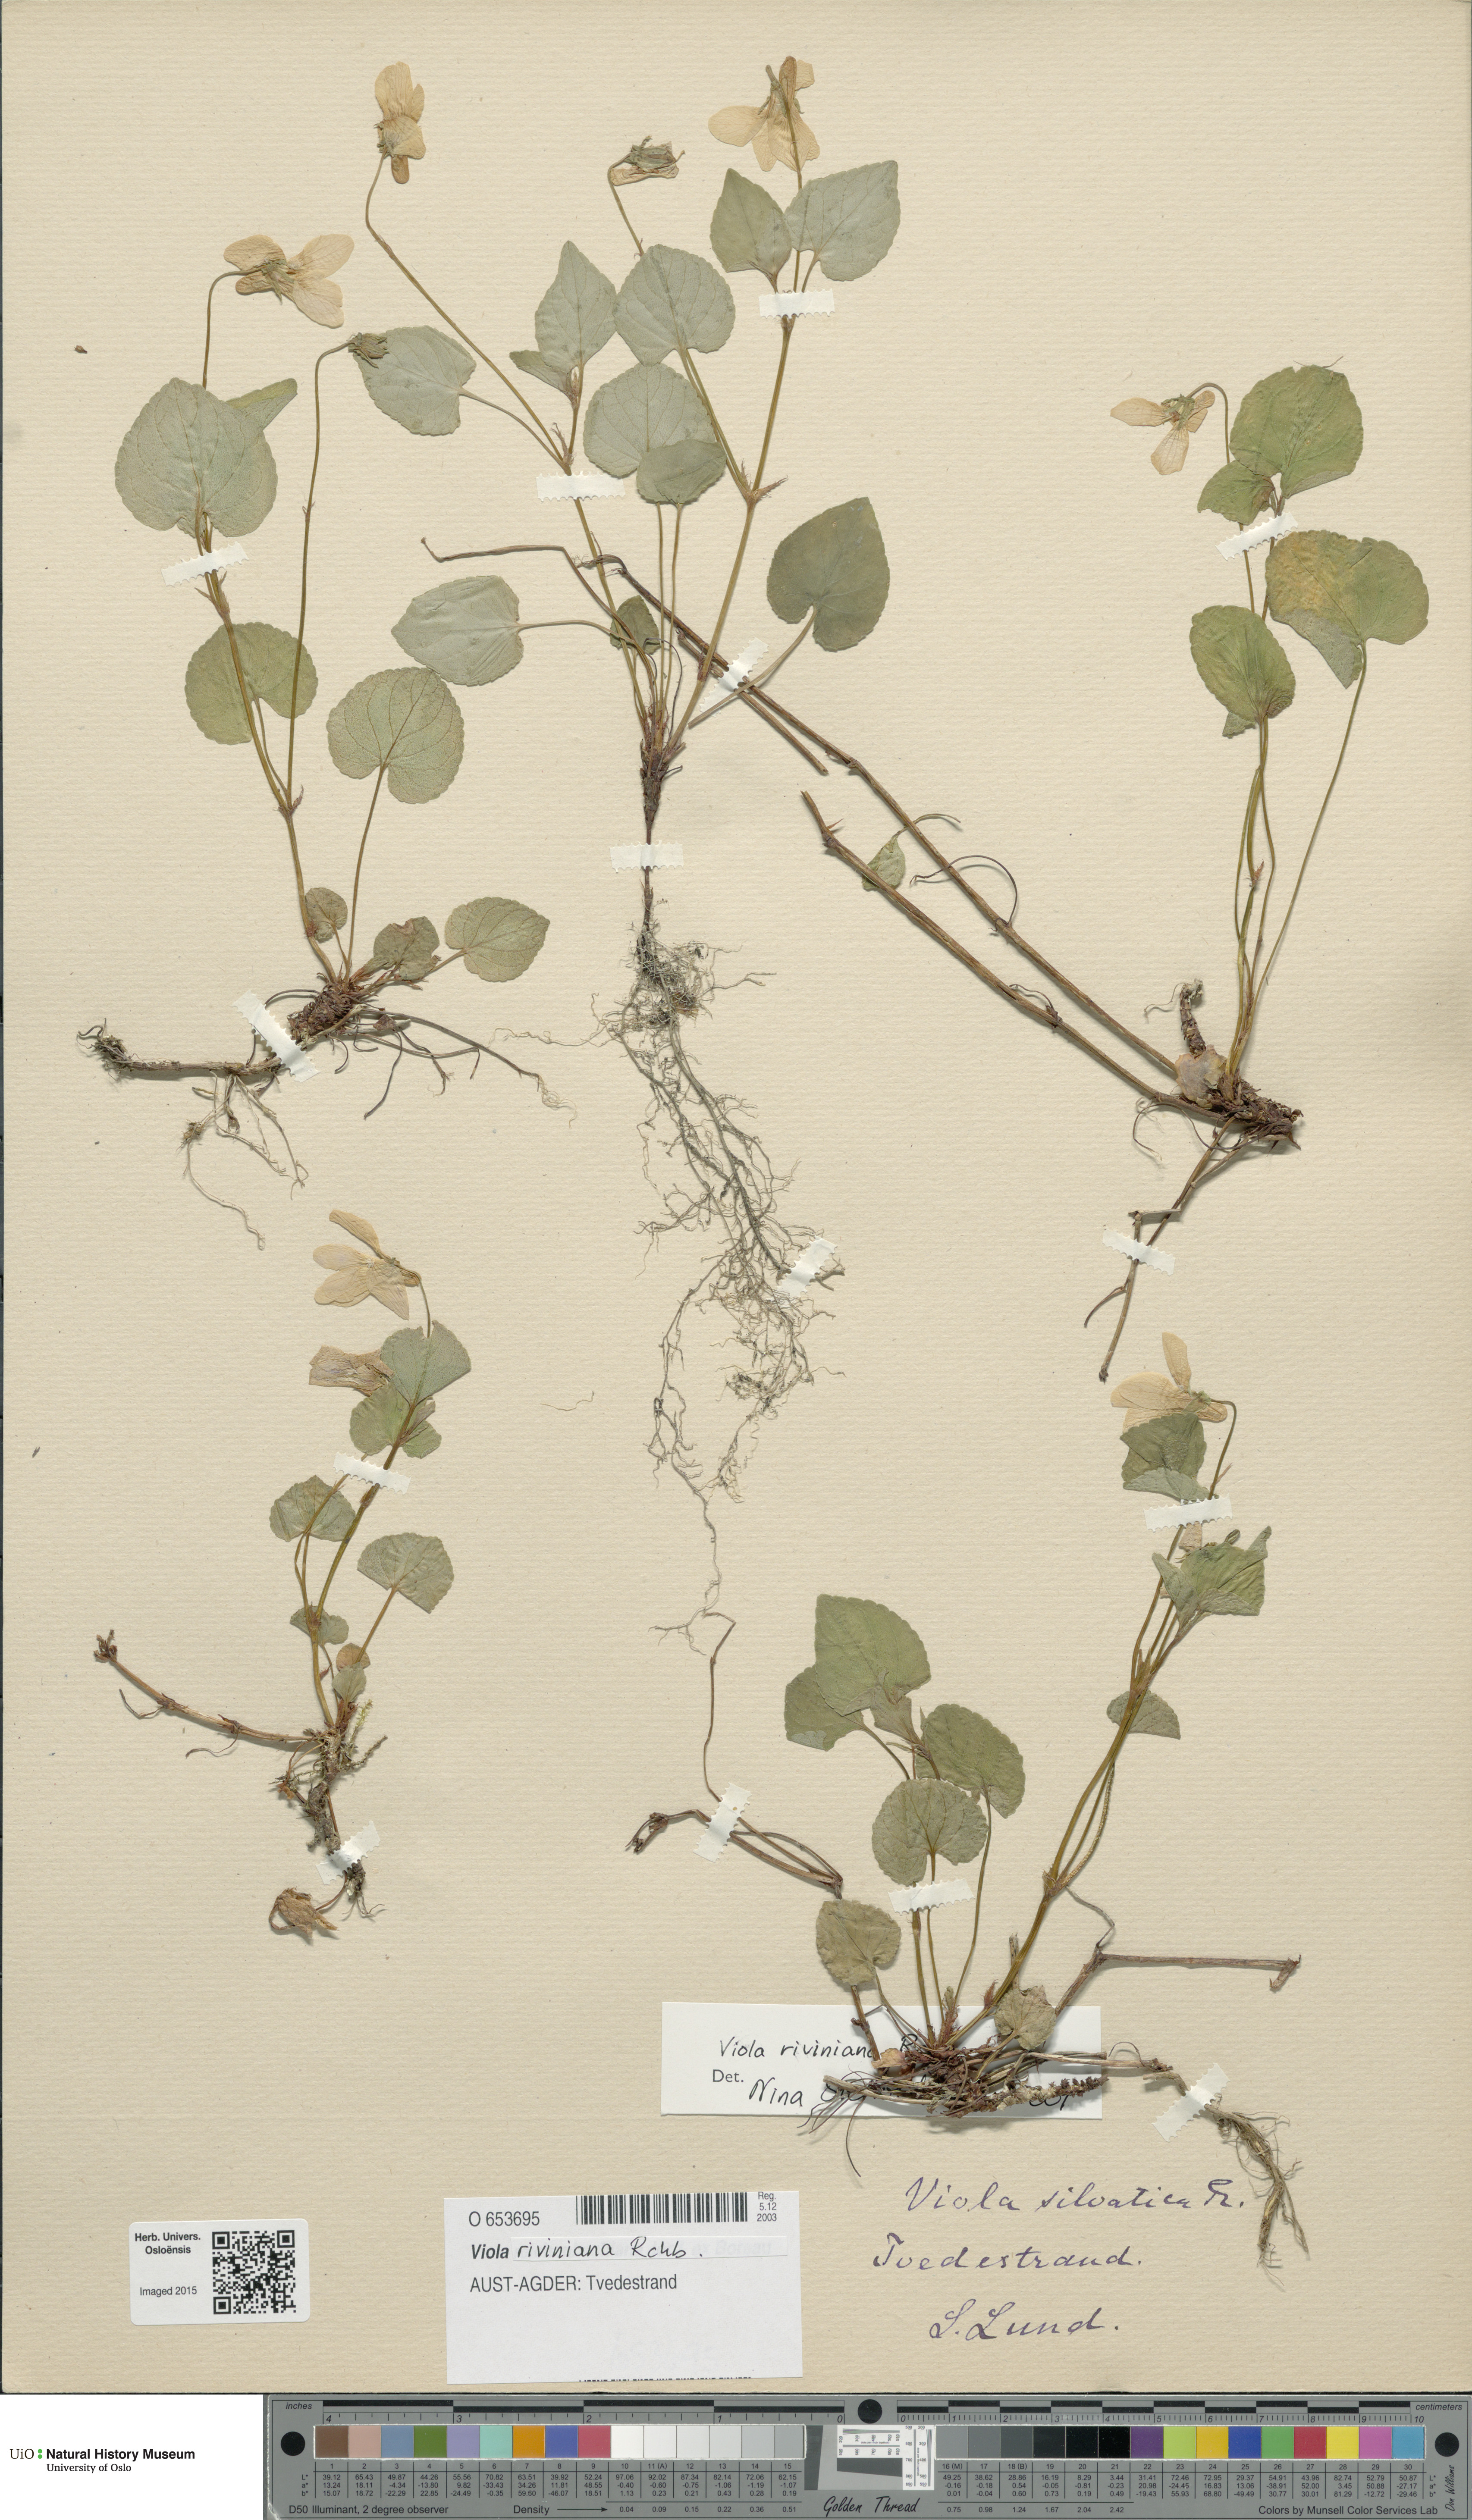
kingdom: Plantae
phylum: Tracheophyta
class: Magnoliopsida
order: Malpighiales
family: Violaceae
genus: Viola
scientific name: Viola riviniana
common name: Common dog-violet
